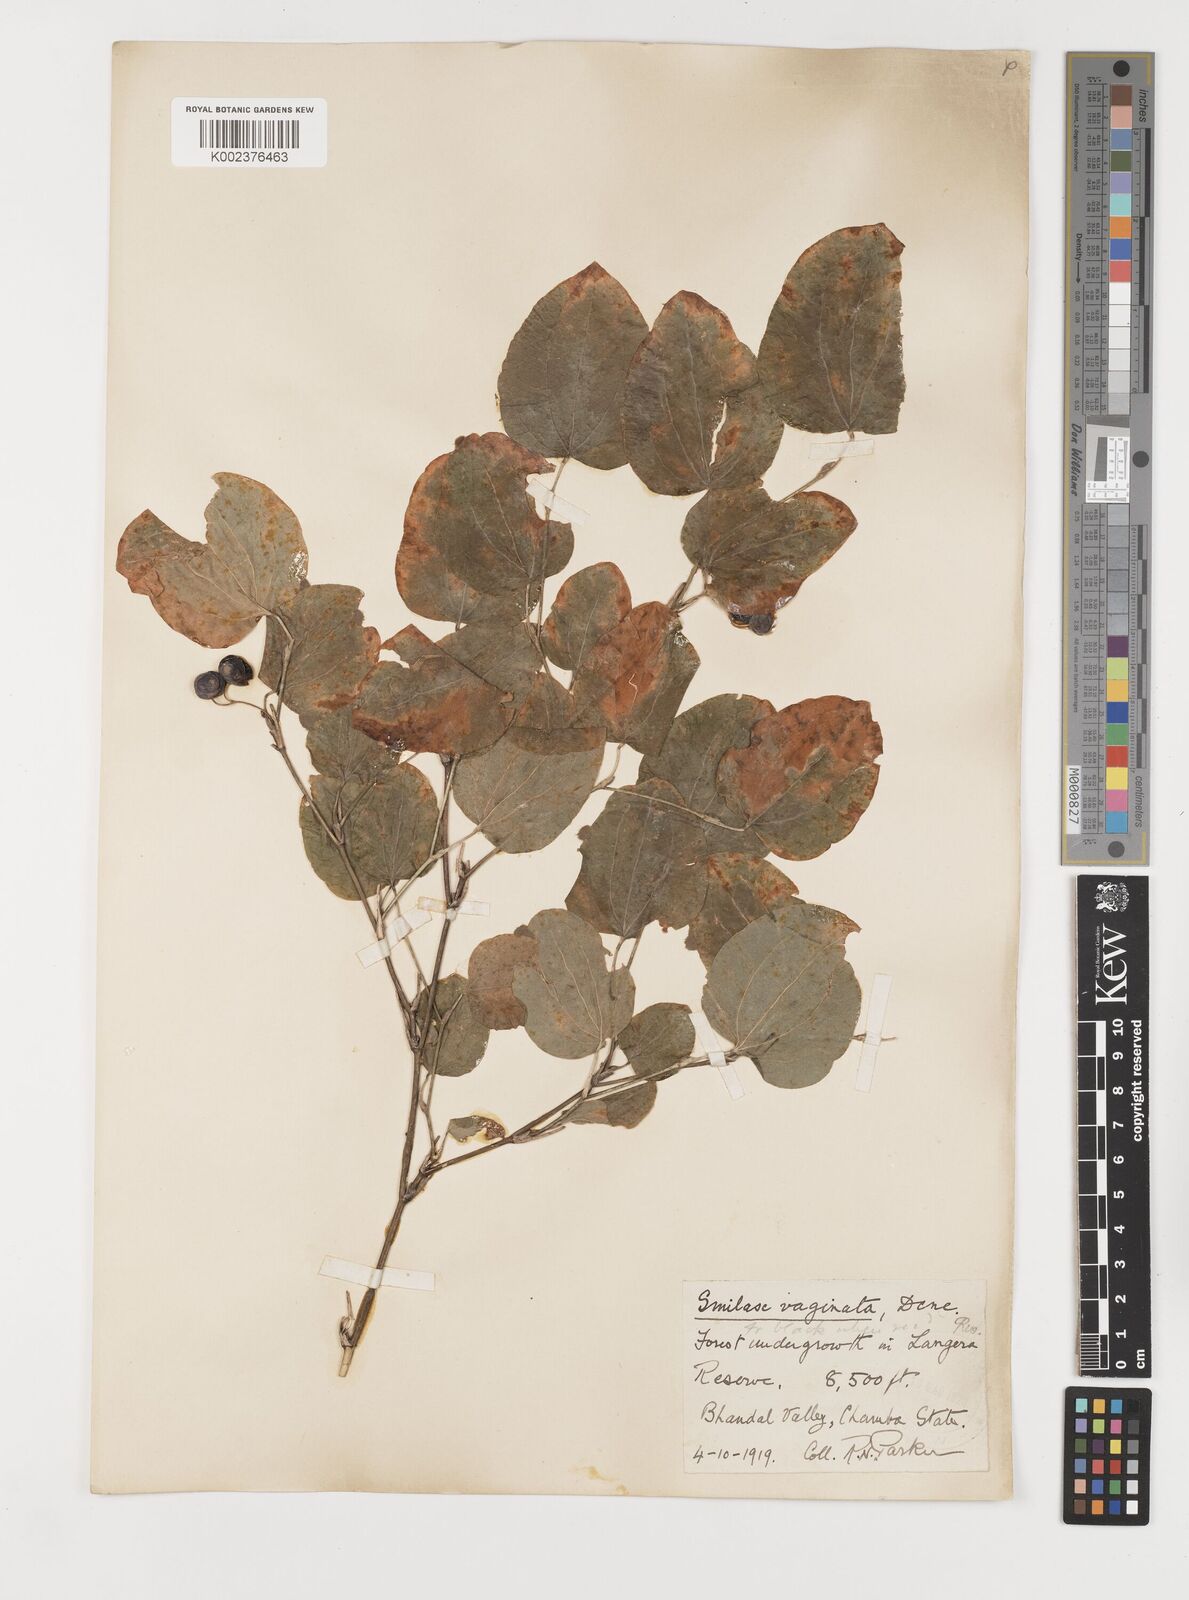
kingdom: Plantae
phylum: Tracheophyta
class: Liliopsida
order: Liliales
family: Smilacaceae
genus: Smilax
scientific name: Smilax vaginata
